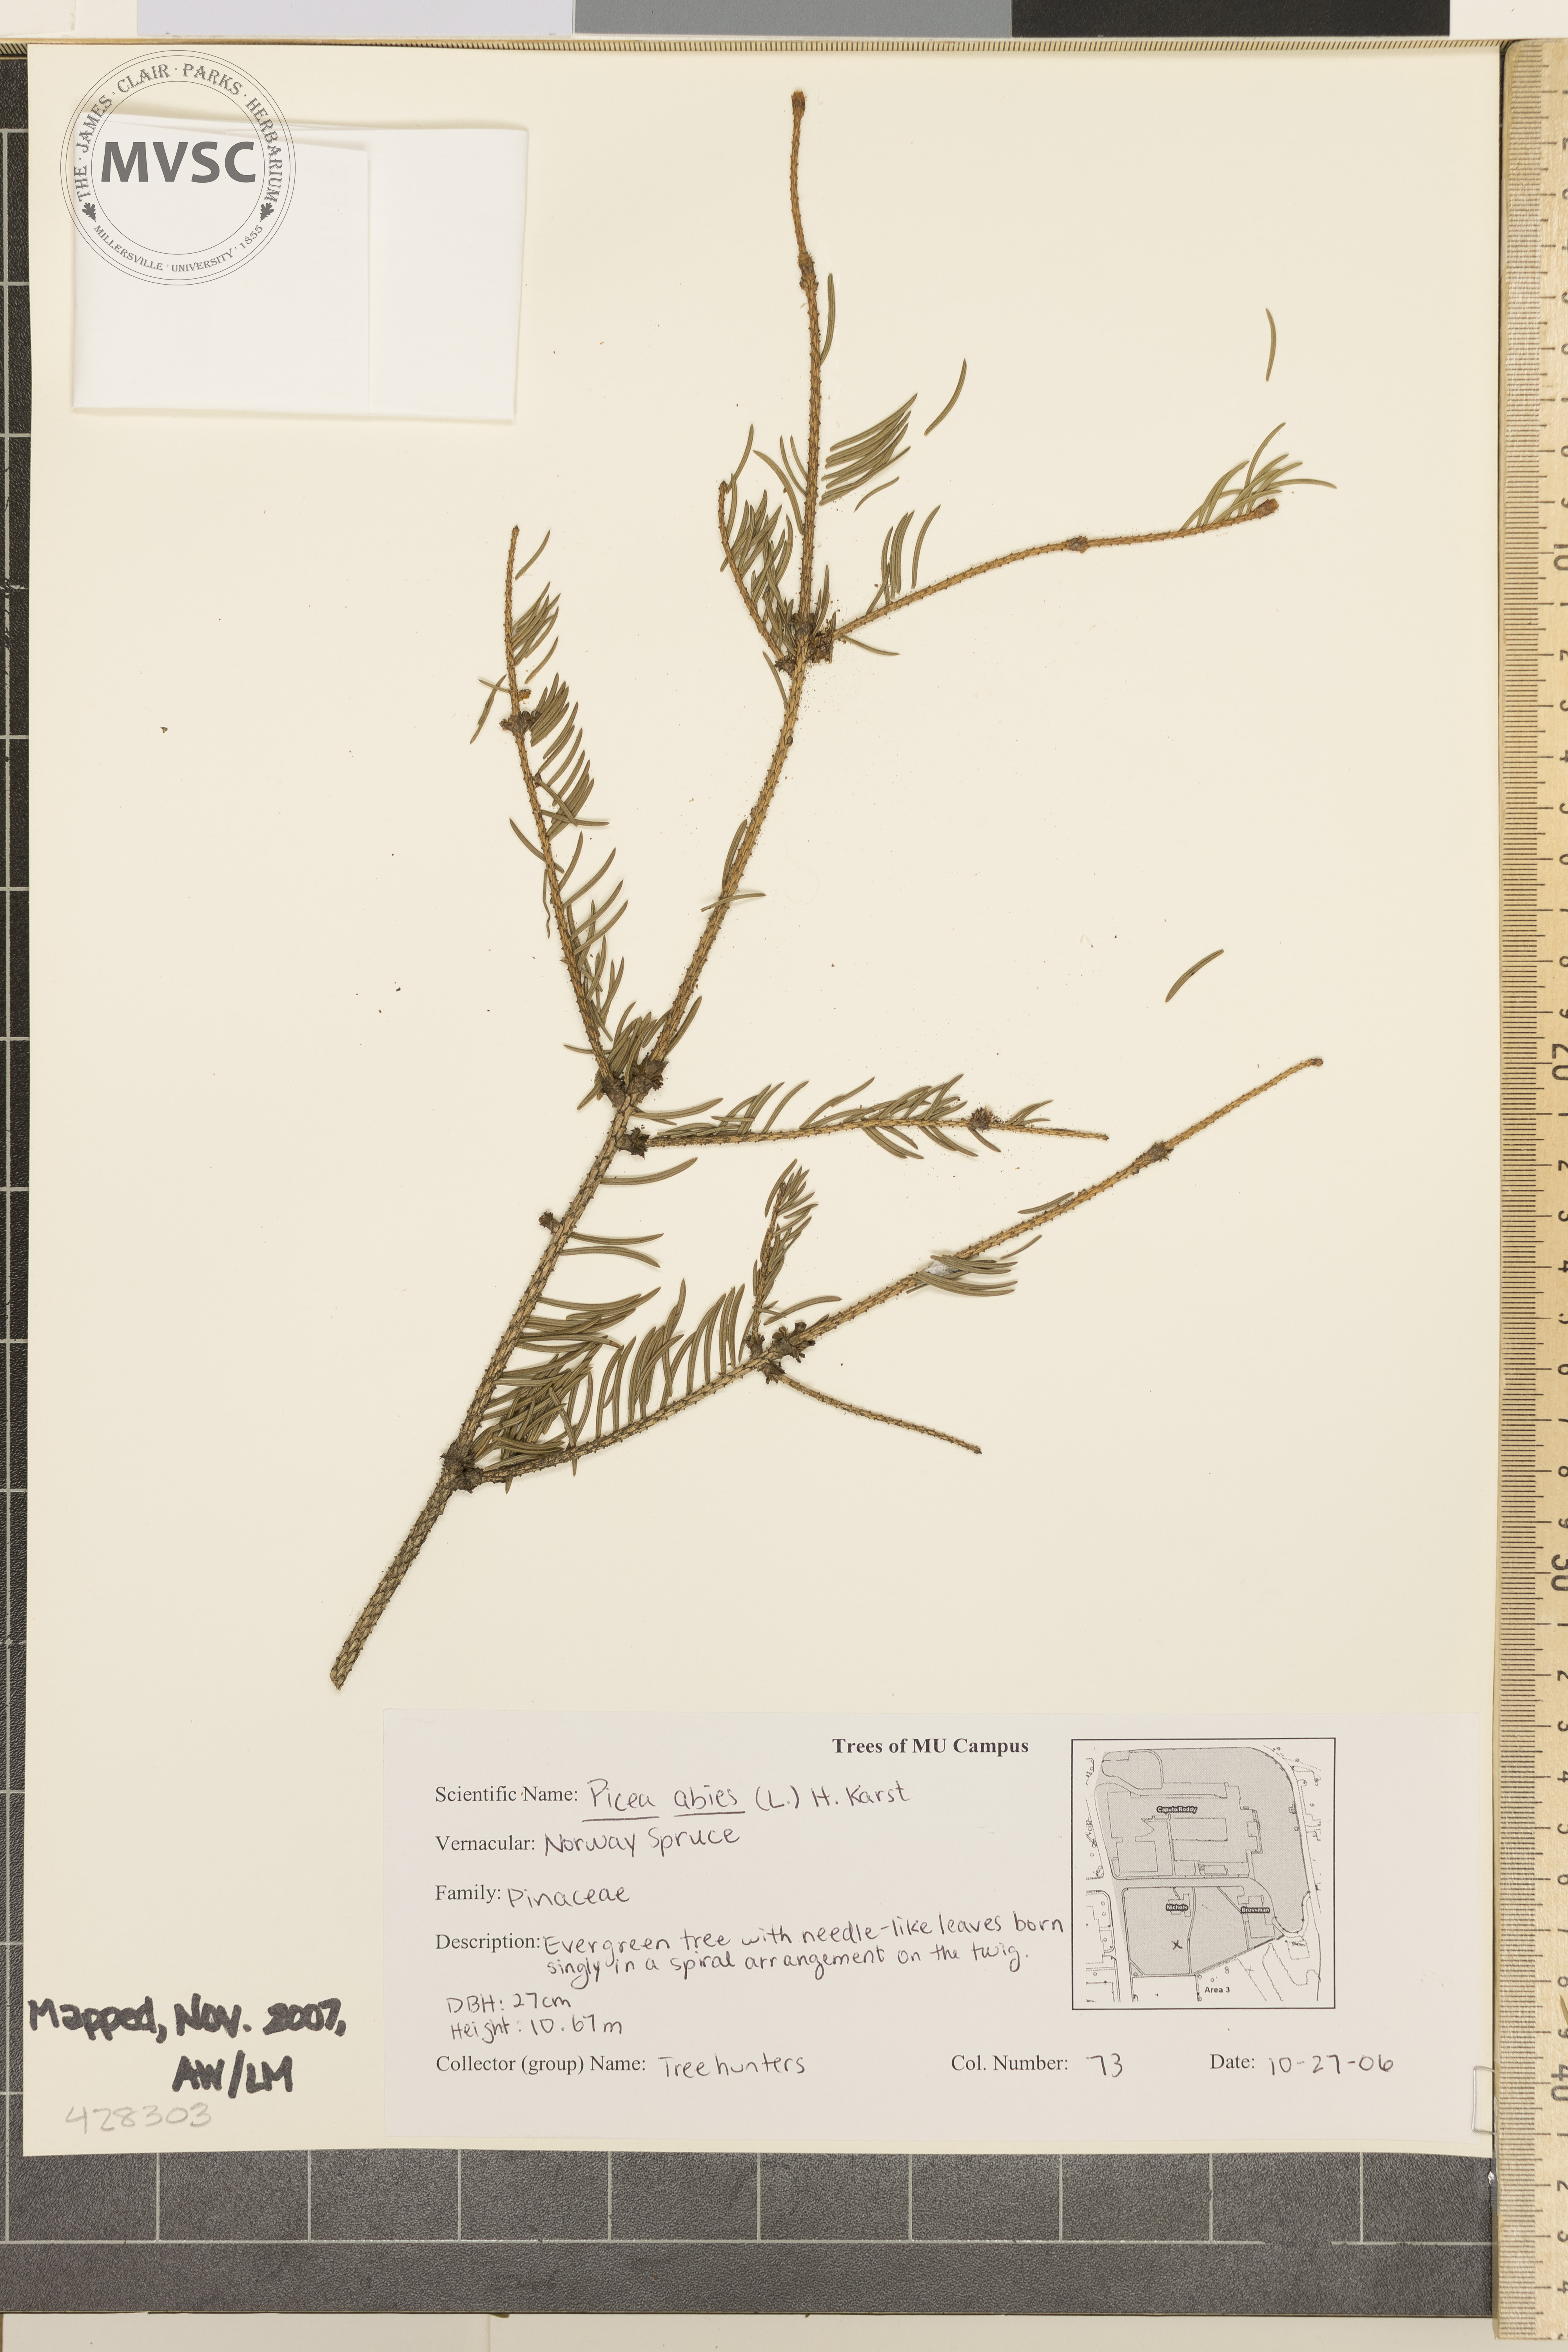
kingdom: Plantae
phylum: Tracheophyta
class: Pinopsida
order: Pinales
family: Pinaceae
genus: Picea
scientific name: Picea abies
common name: Norway Spruce
